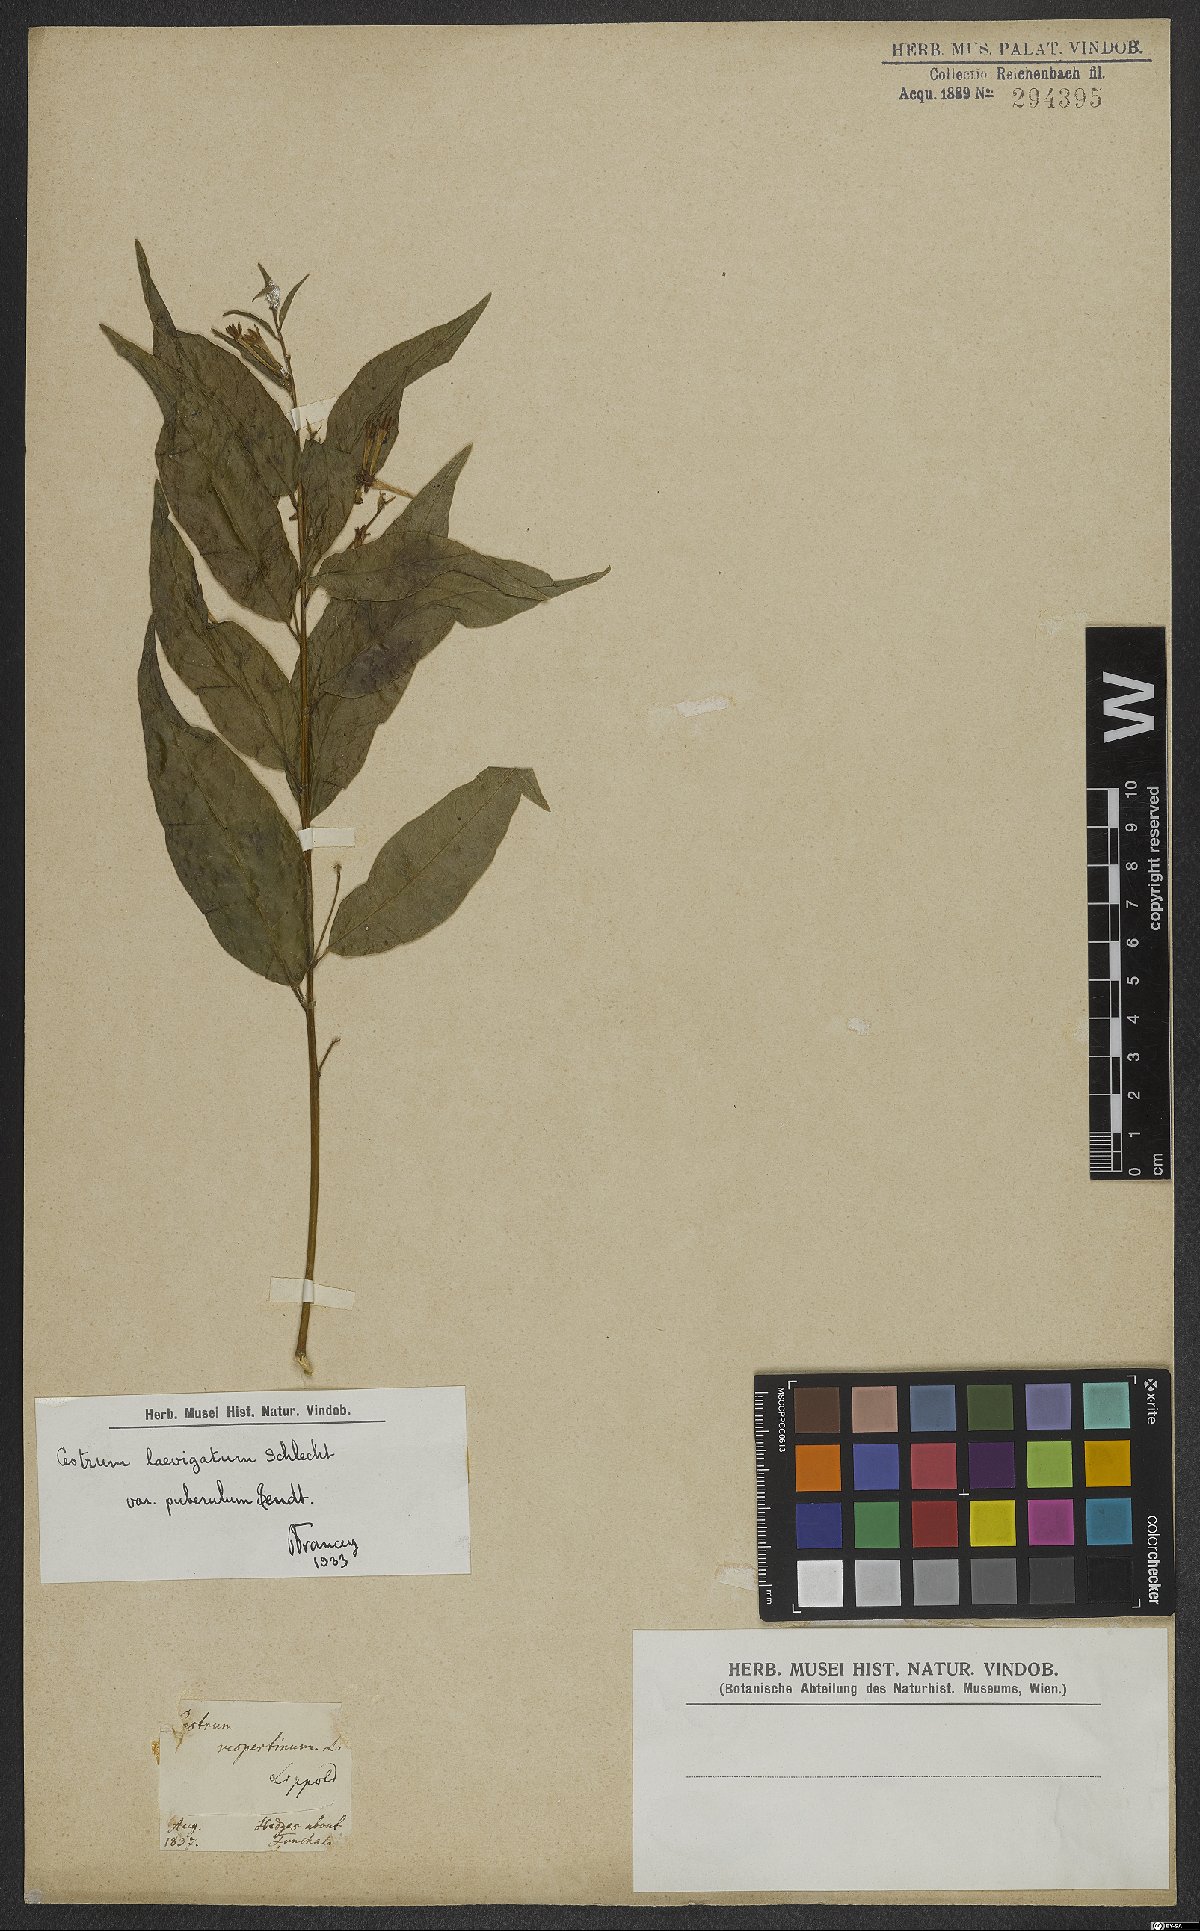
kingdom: Plantae
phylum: Tracheophyta
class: Magnoliopsida
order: Solanales
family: Solanaceae
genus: Cestrum
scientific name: Cestrum laevigatum
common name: Inkberry
